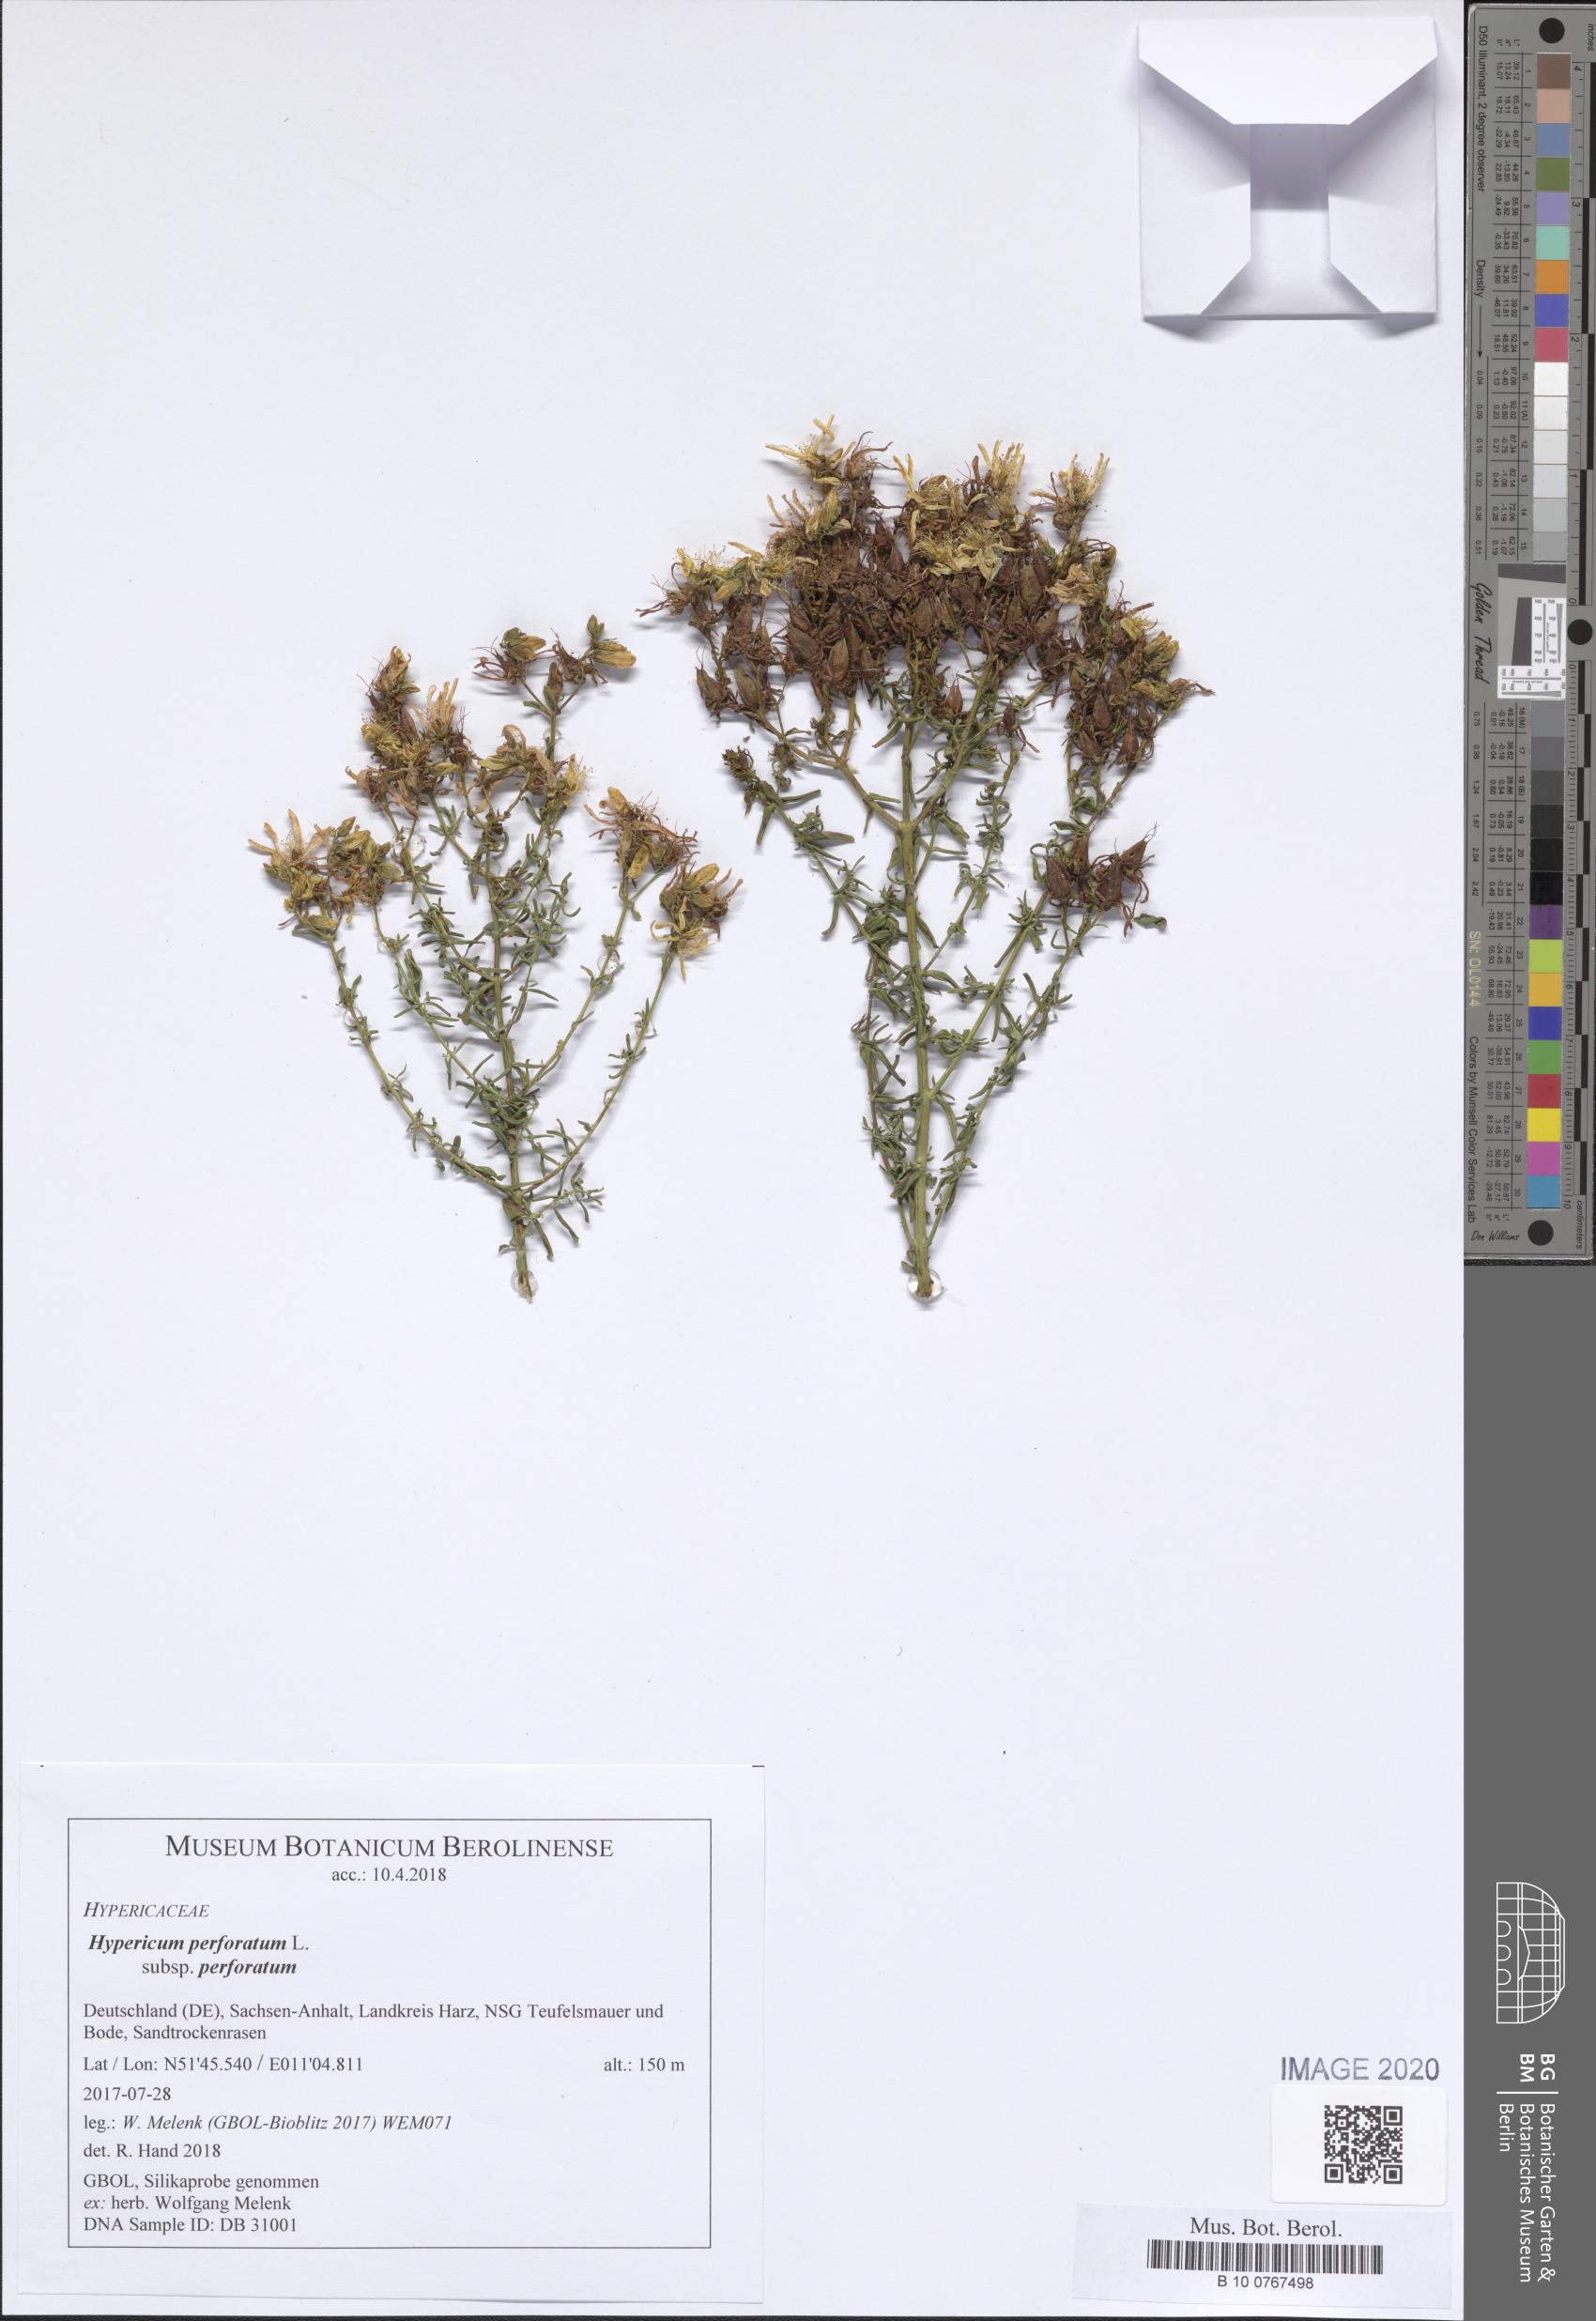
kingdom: Plantae
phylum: Tracheophyta
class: Magnoliopsida
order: Malpighiales
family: Hypericaceae
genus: Hypericum
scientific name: Hypericum perforatum
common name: Common st. johnswort
